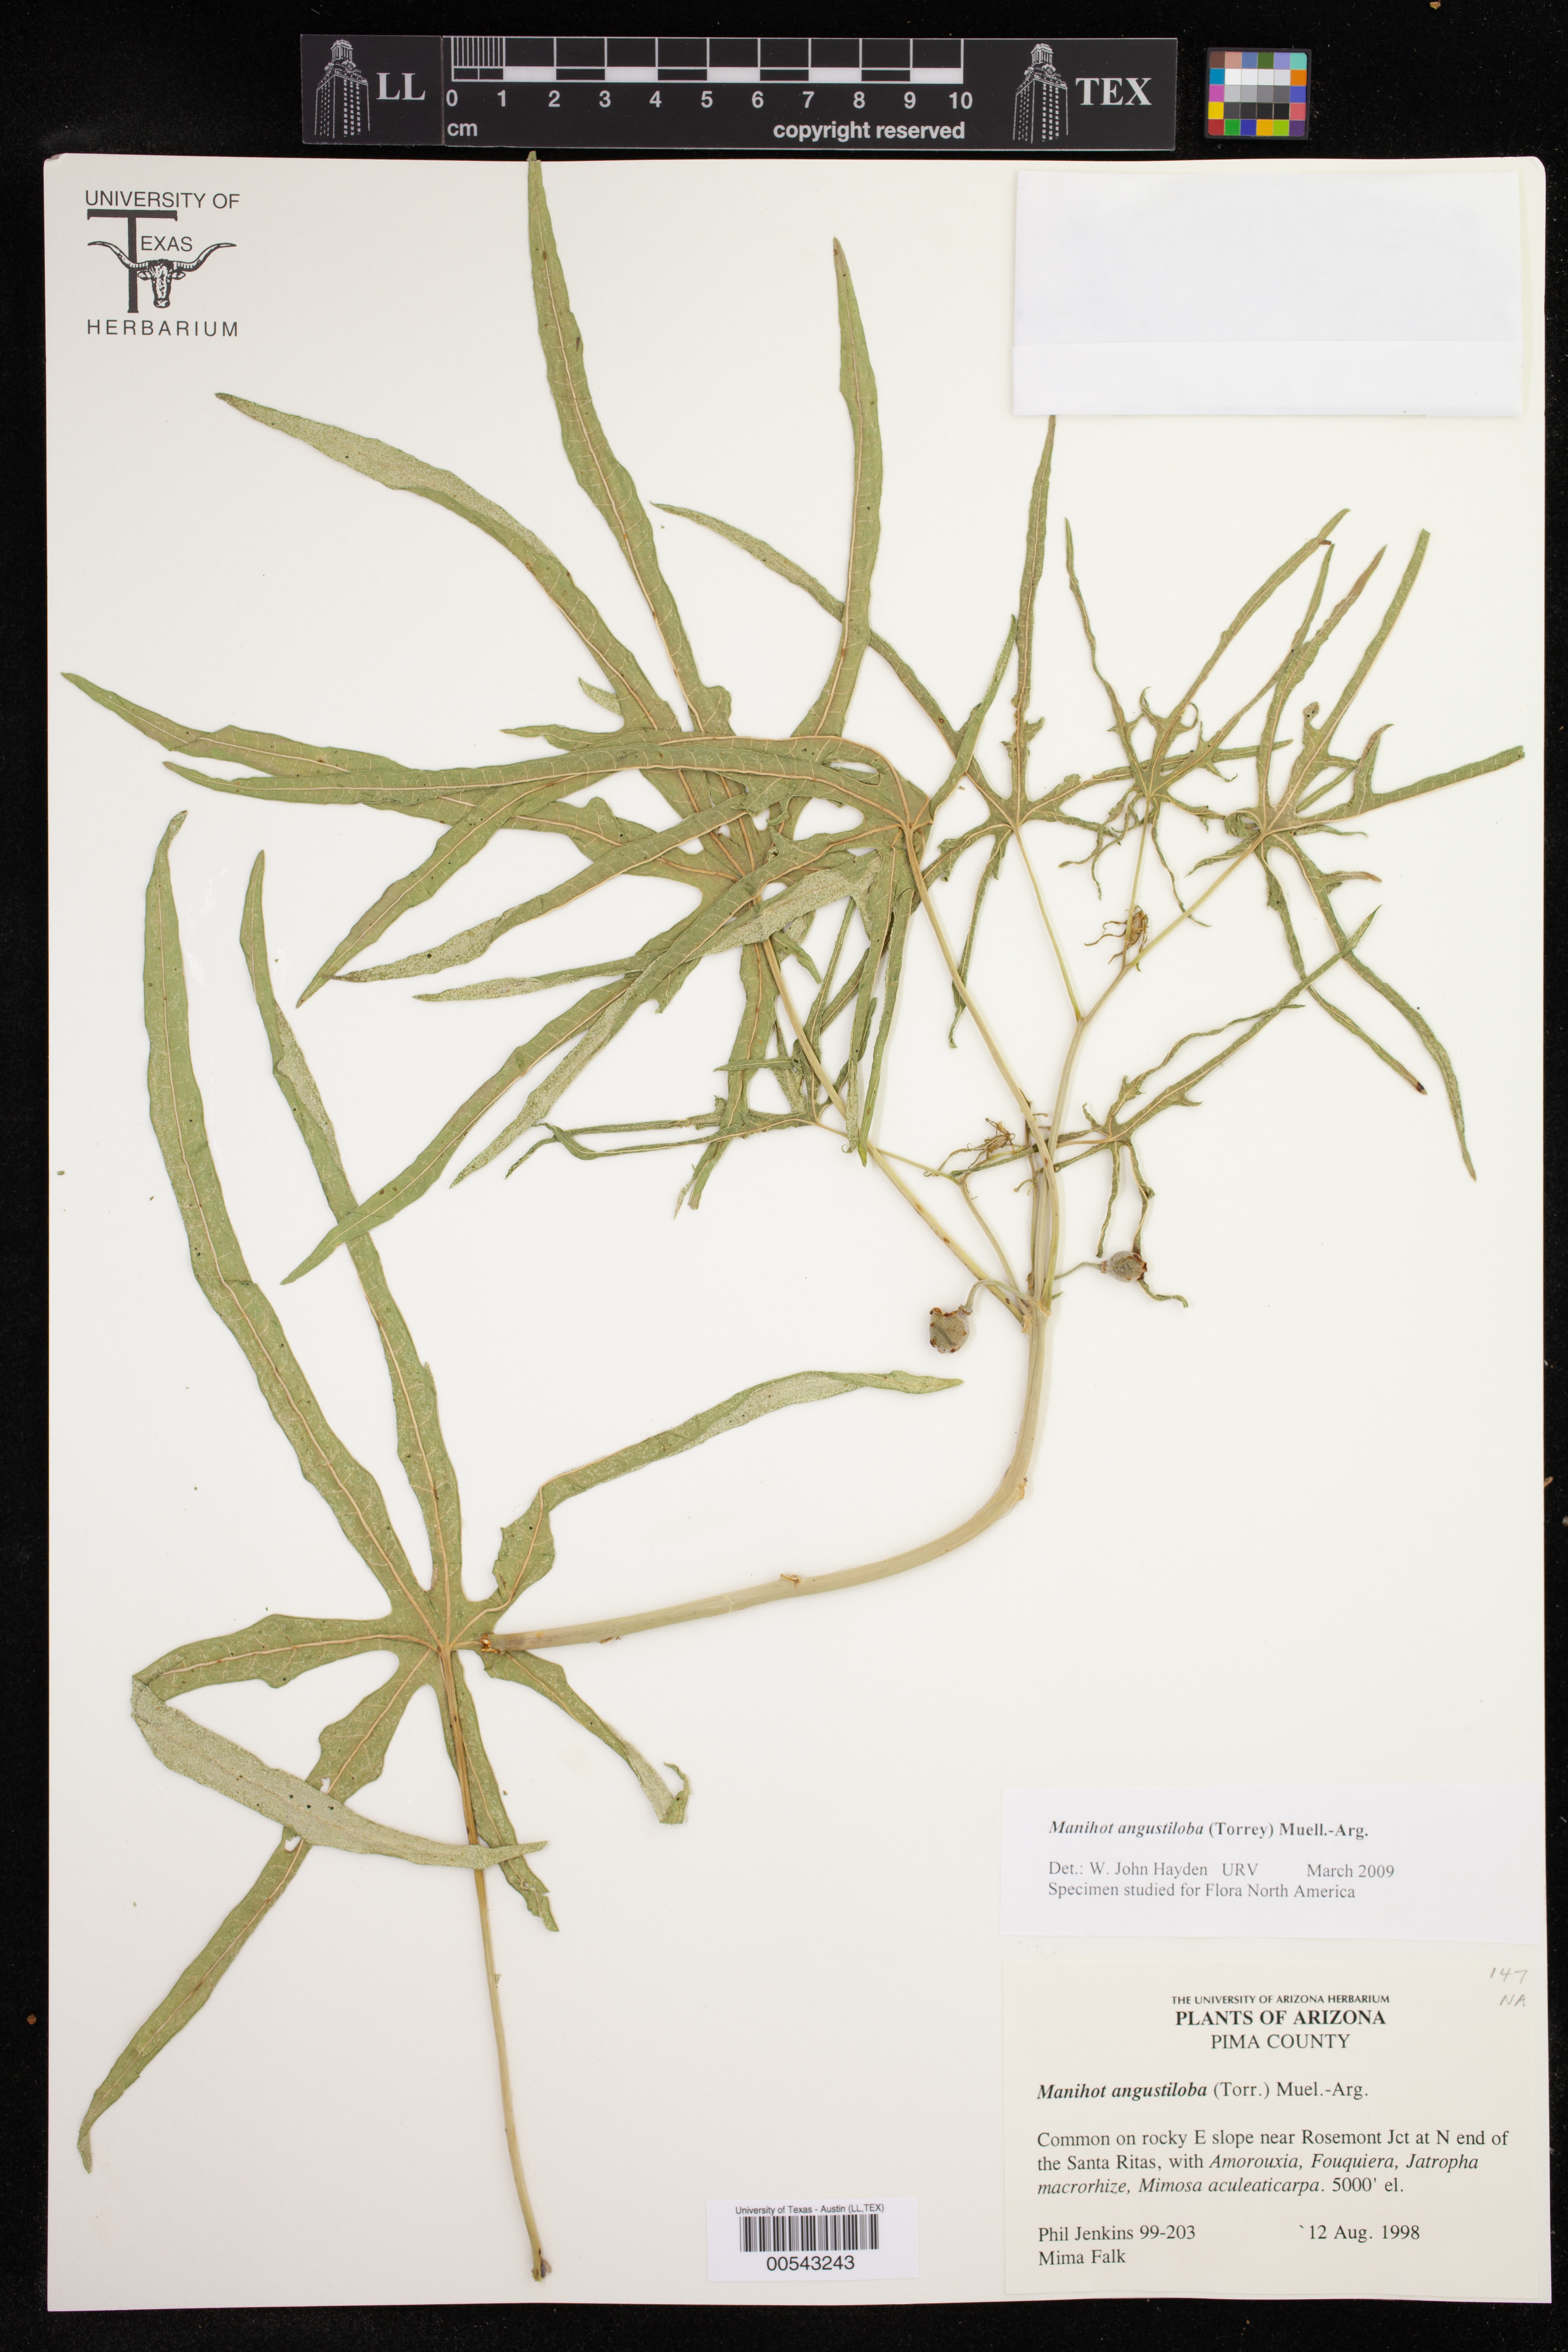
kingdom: Plantae
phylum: Tracheophyta
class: Magnoliopsida
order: Malpighiales
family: Euphorbiaceae
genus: Manihot
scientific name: Manihot angustiloba
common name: Desert mountain manihot
